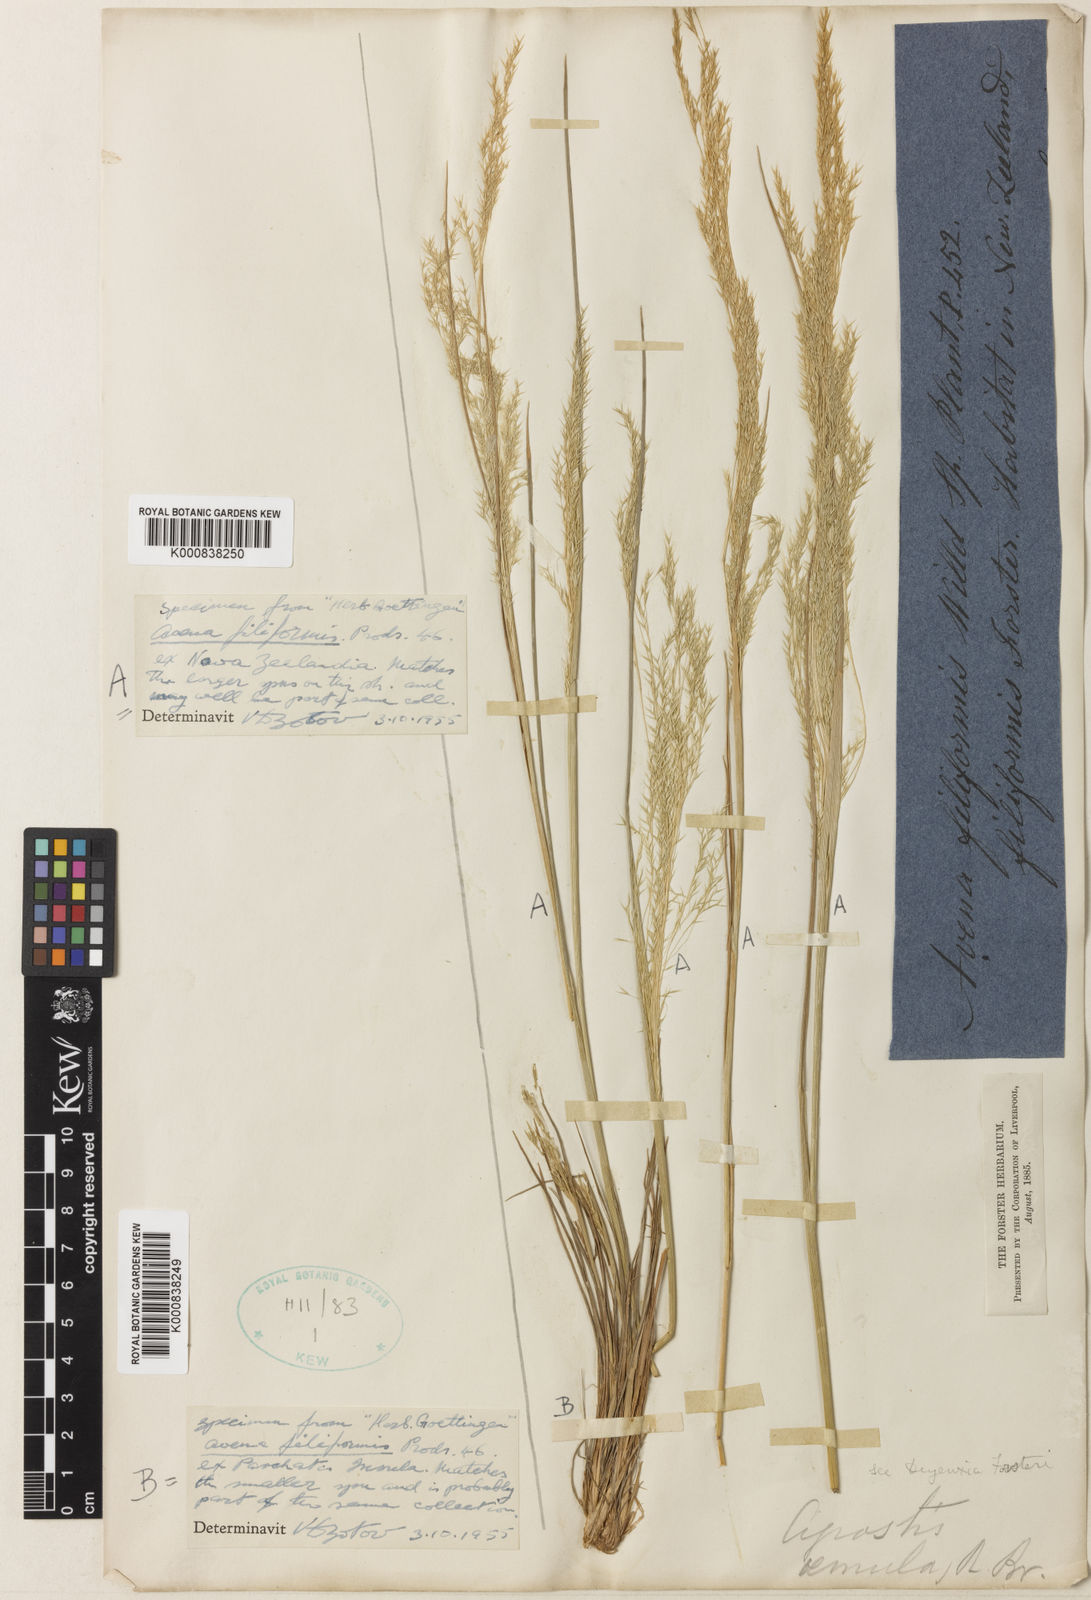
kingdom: Plantae
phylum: Tracheophyta
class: Liliopsida
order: Poales
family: Poaceae
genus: Lachnagrostis
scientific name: Lachnagrostis filiformis
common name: Bentgrass
